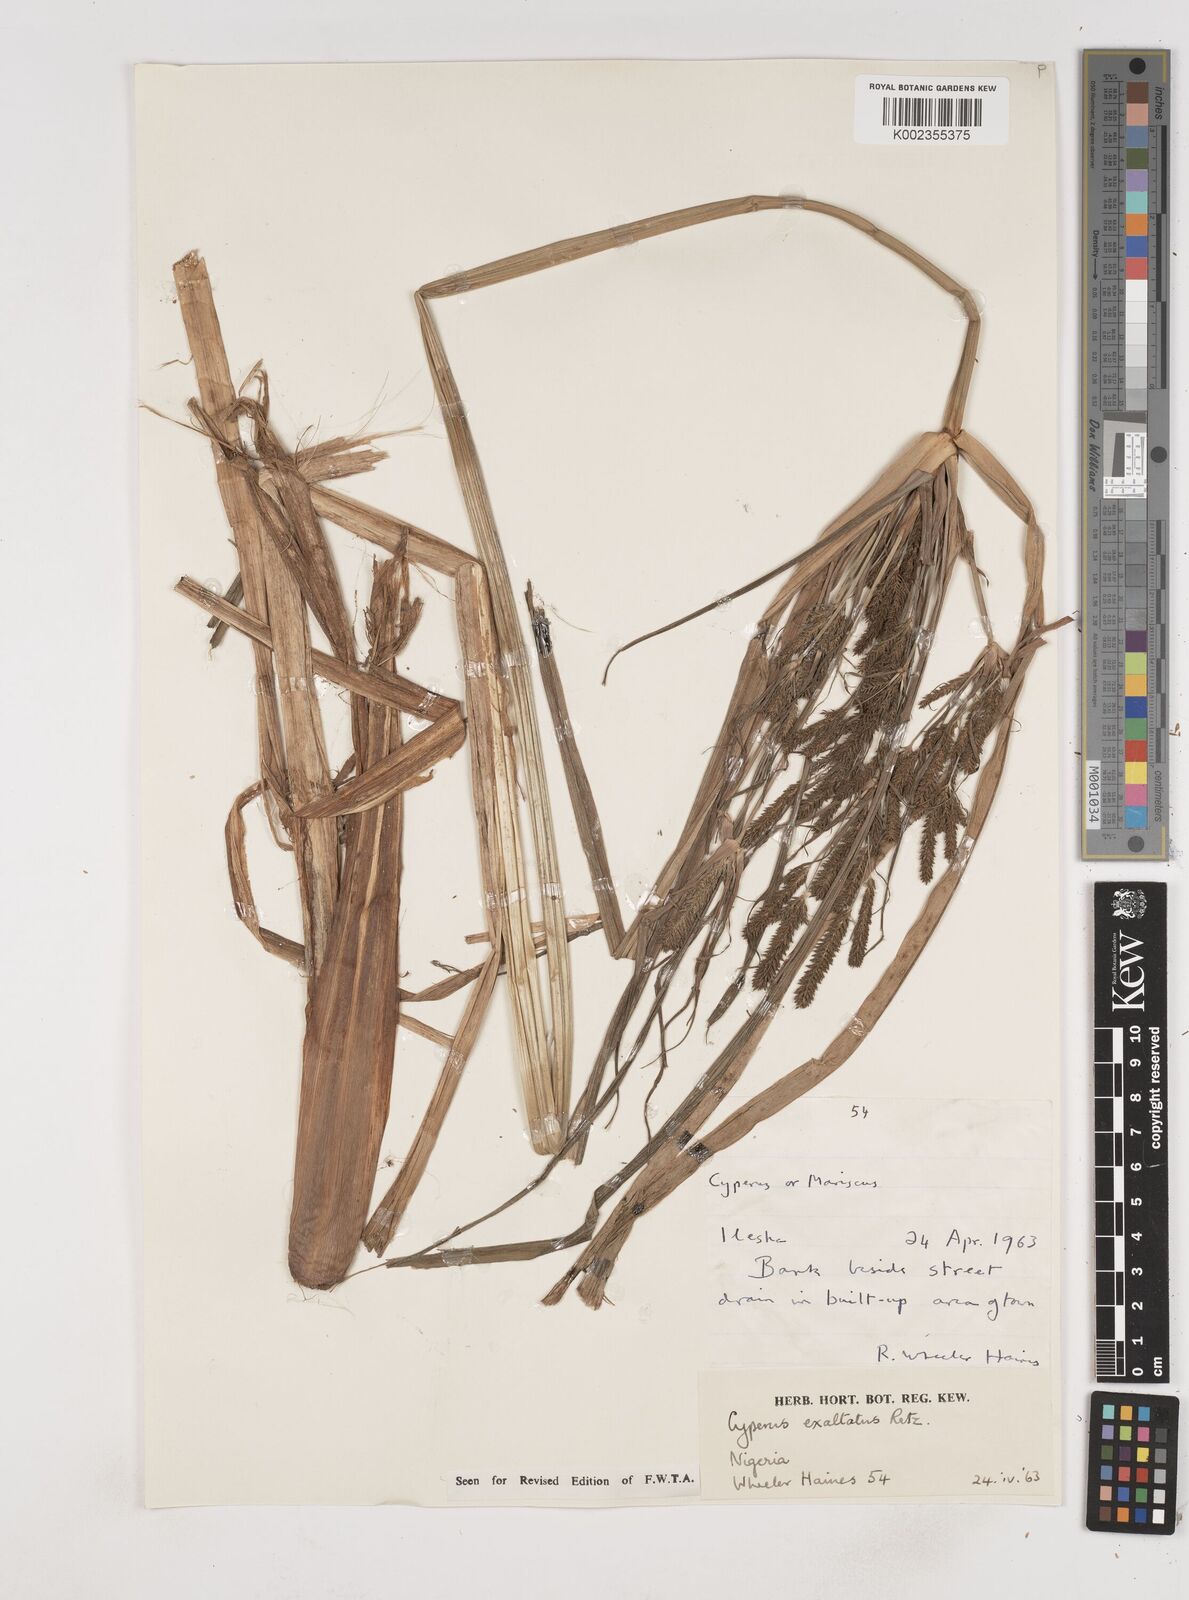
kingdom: Plantae
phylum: Tracheophyta
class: Liliopsida
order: Poales
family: Cyperaceae
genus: Cyperus
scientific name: Cyperus exaltatus
